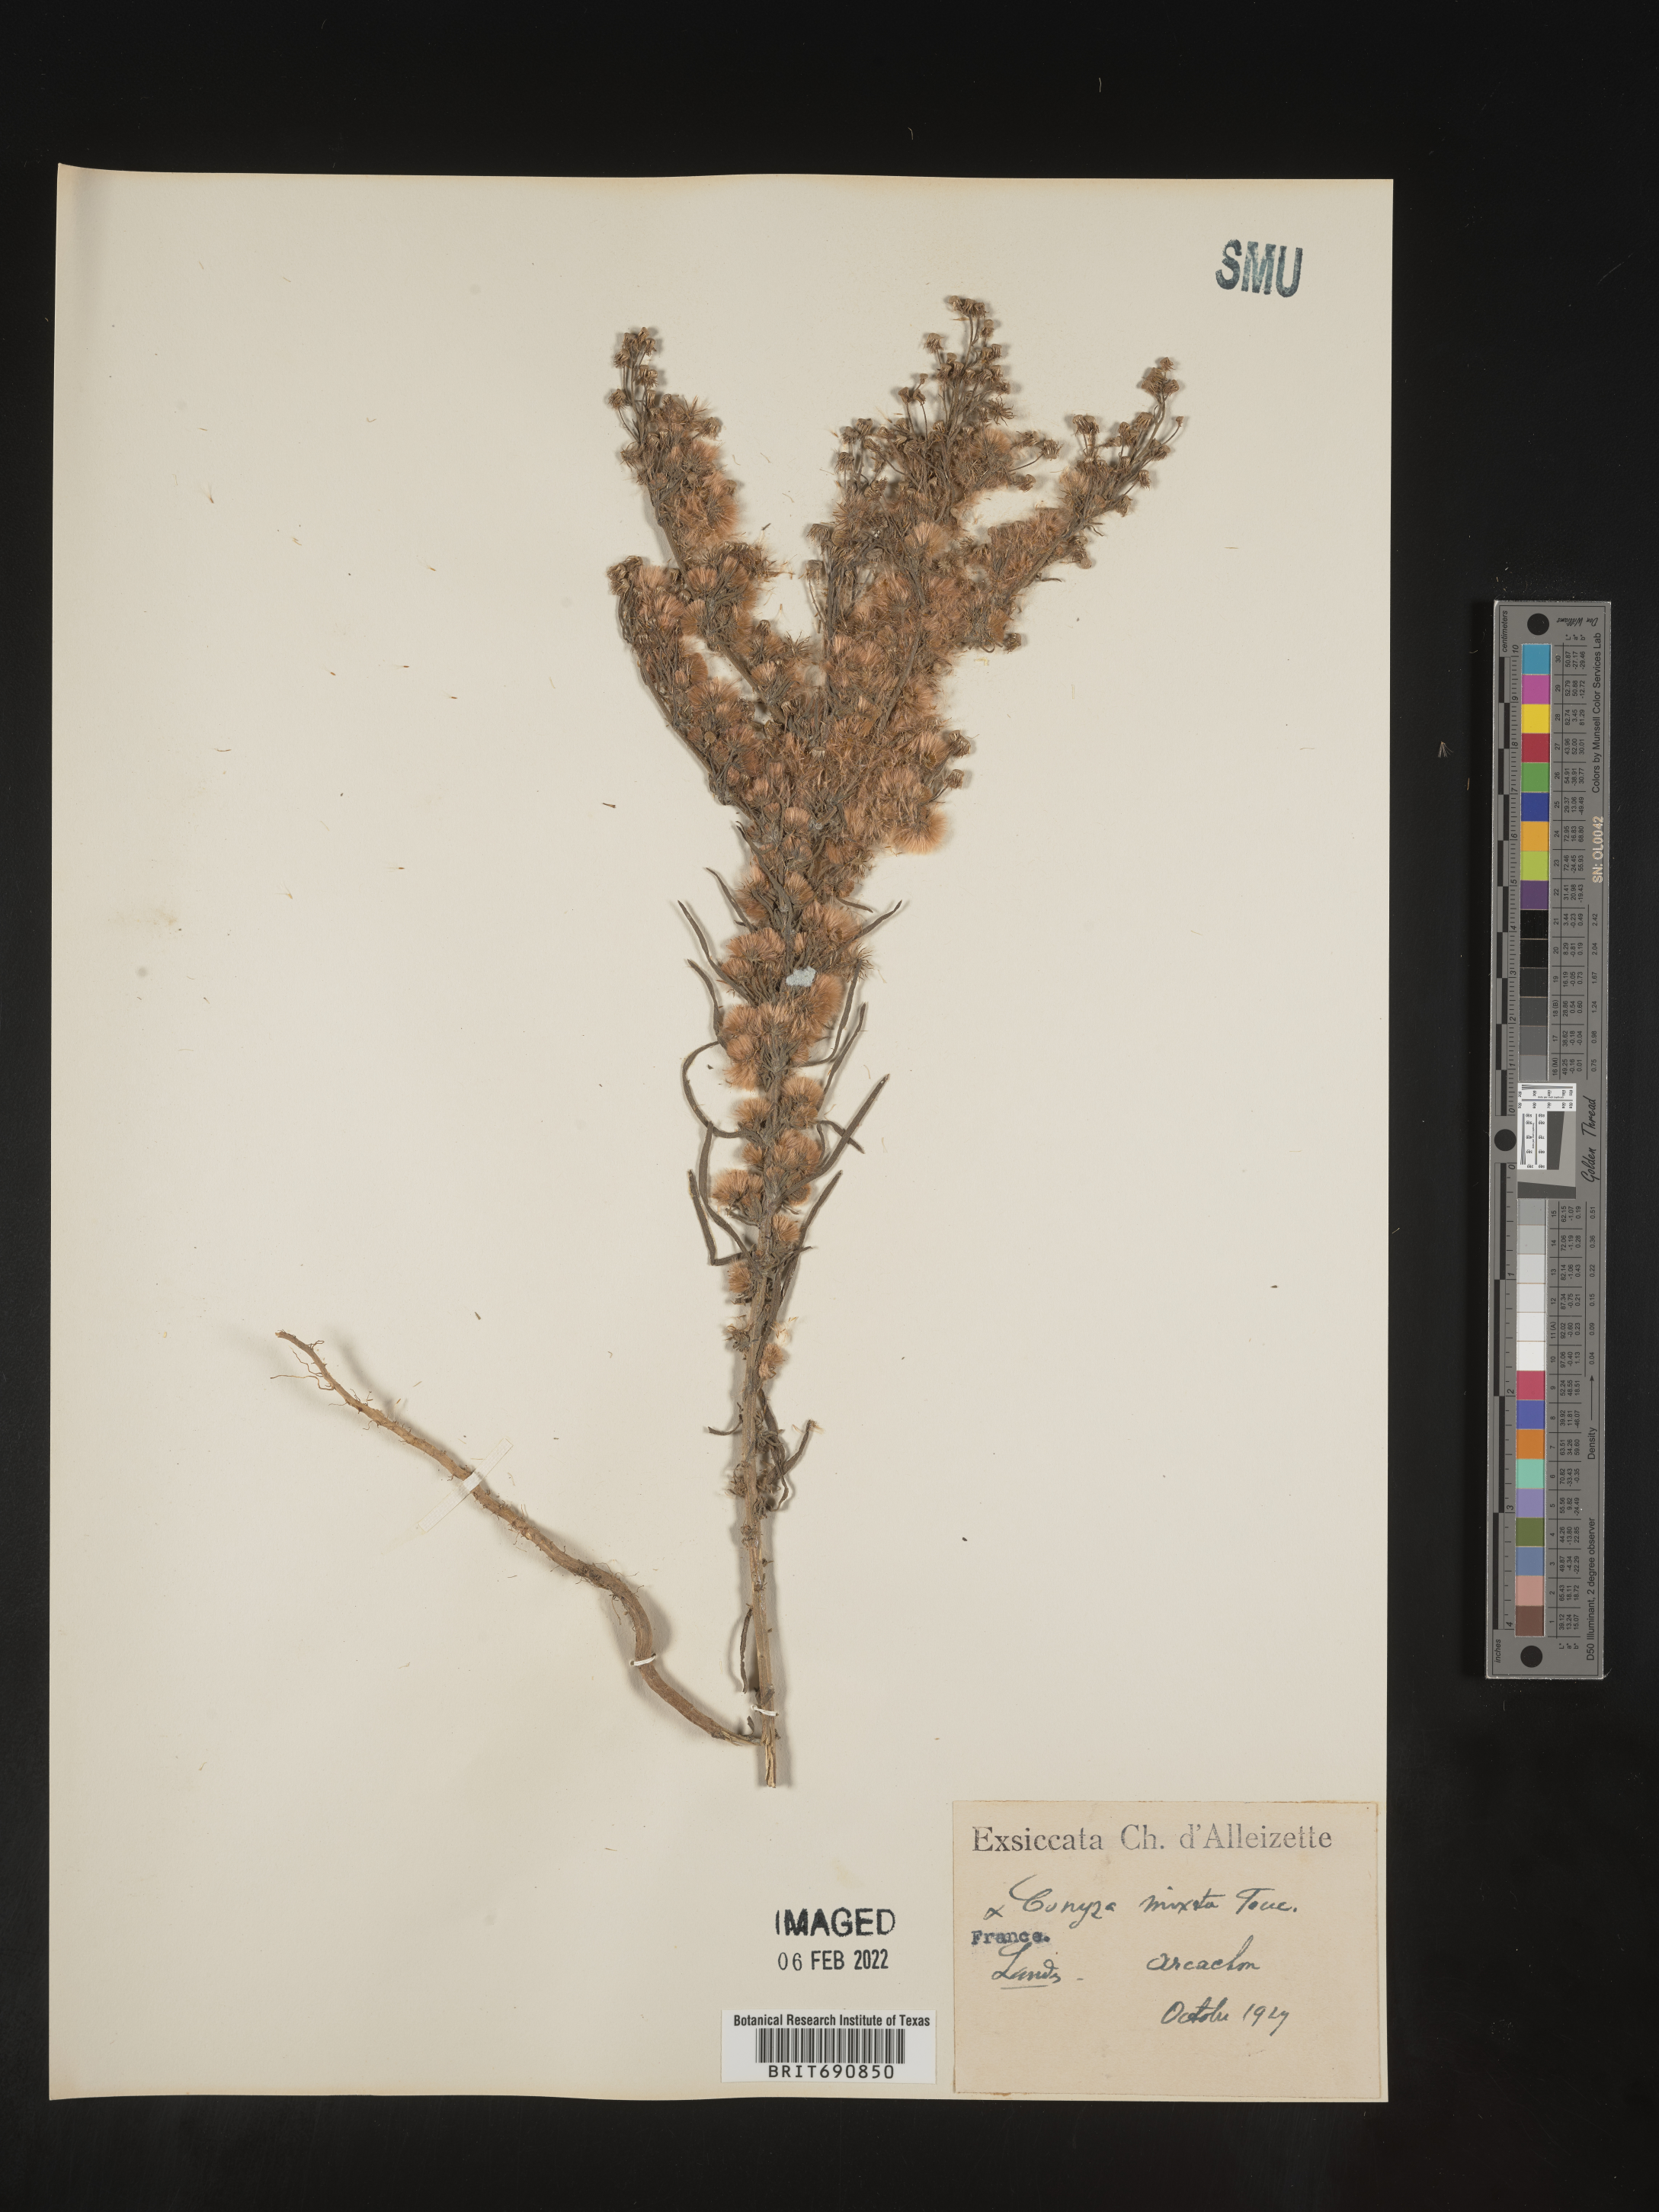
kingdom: Plantae
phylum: Tracheophyta
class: Magnoliopsida
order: Asterales
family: Asteraceae
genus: Conyza
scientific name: Conyza
